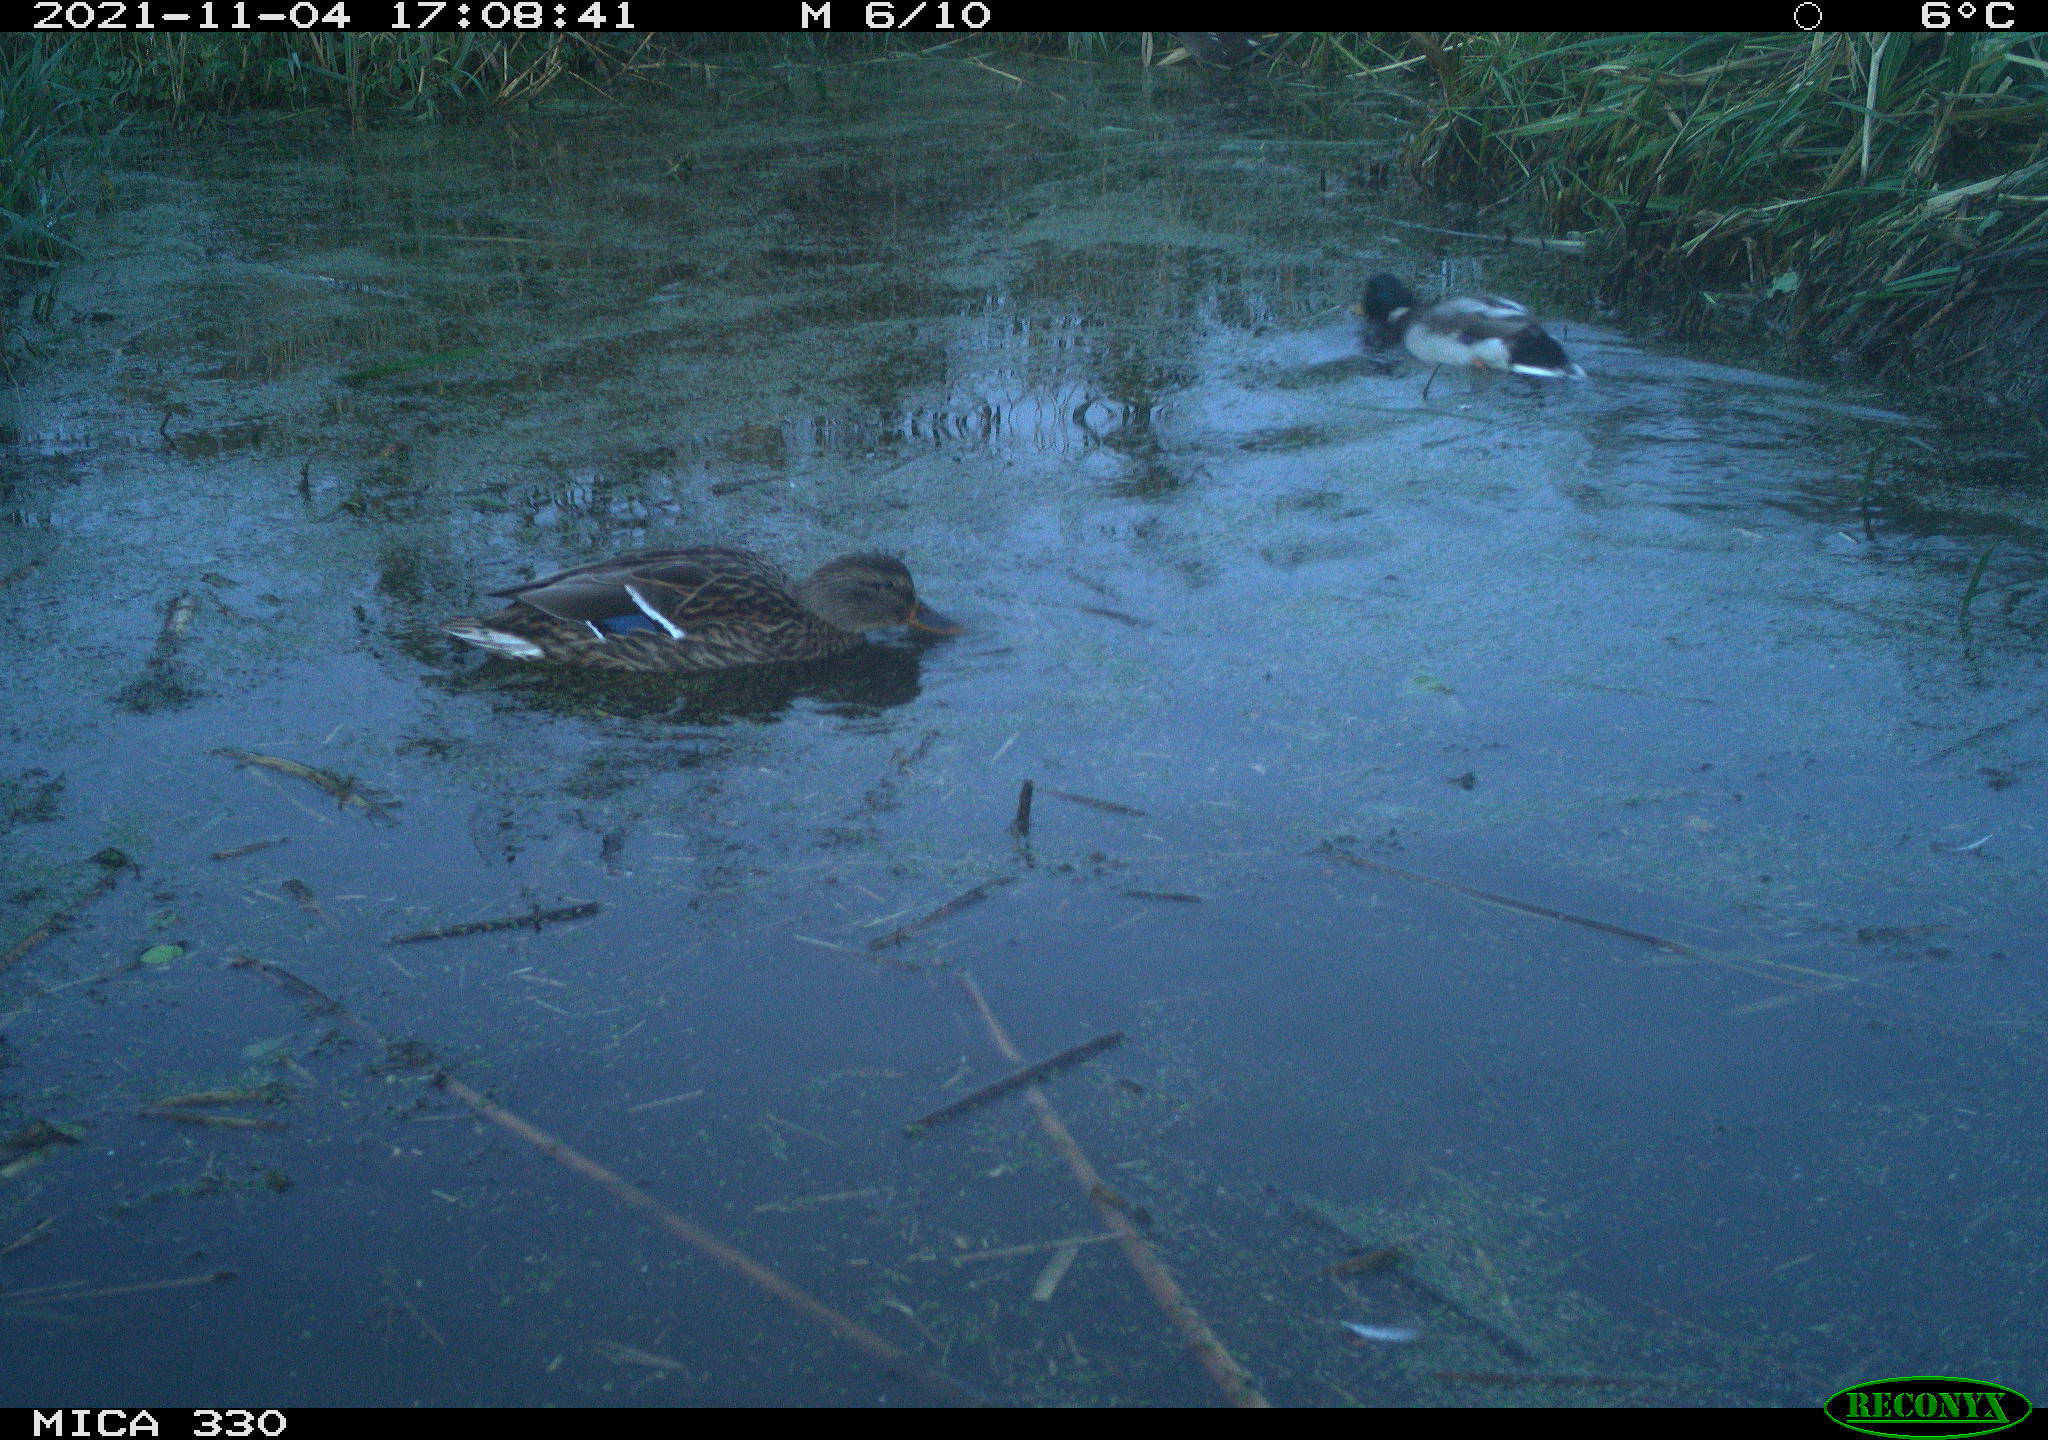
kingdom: Animalia
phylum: Chordata
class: Aves
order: Anseriformes
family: Anatidae
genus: Anas
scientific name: Anas platyrhynchos
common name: Mallard
